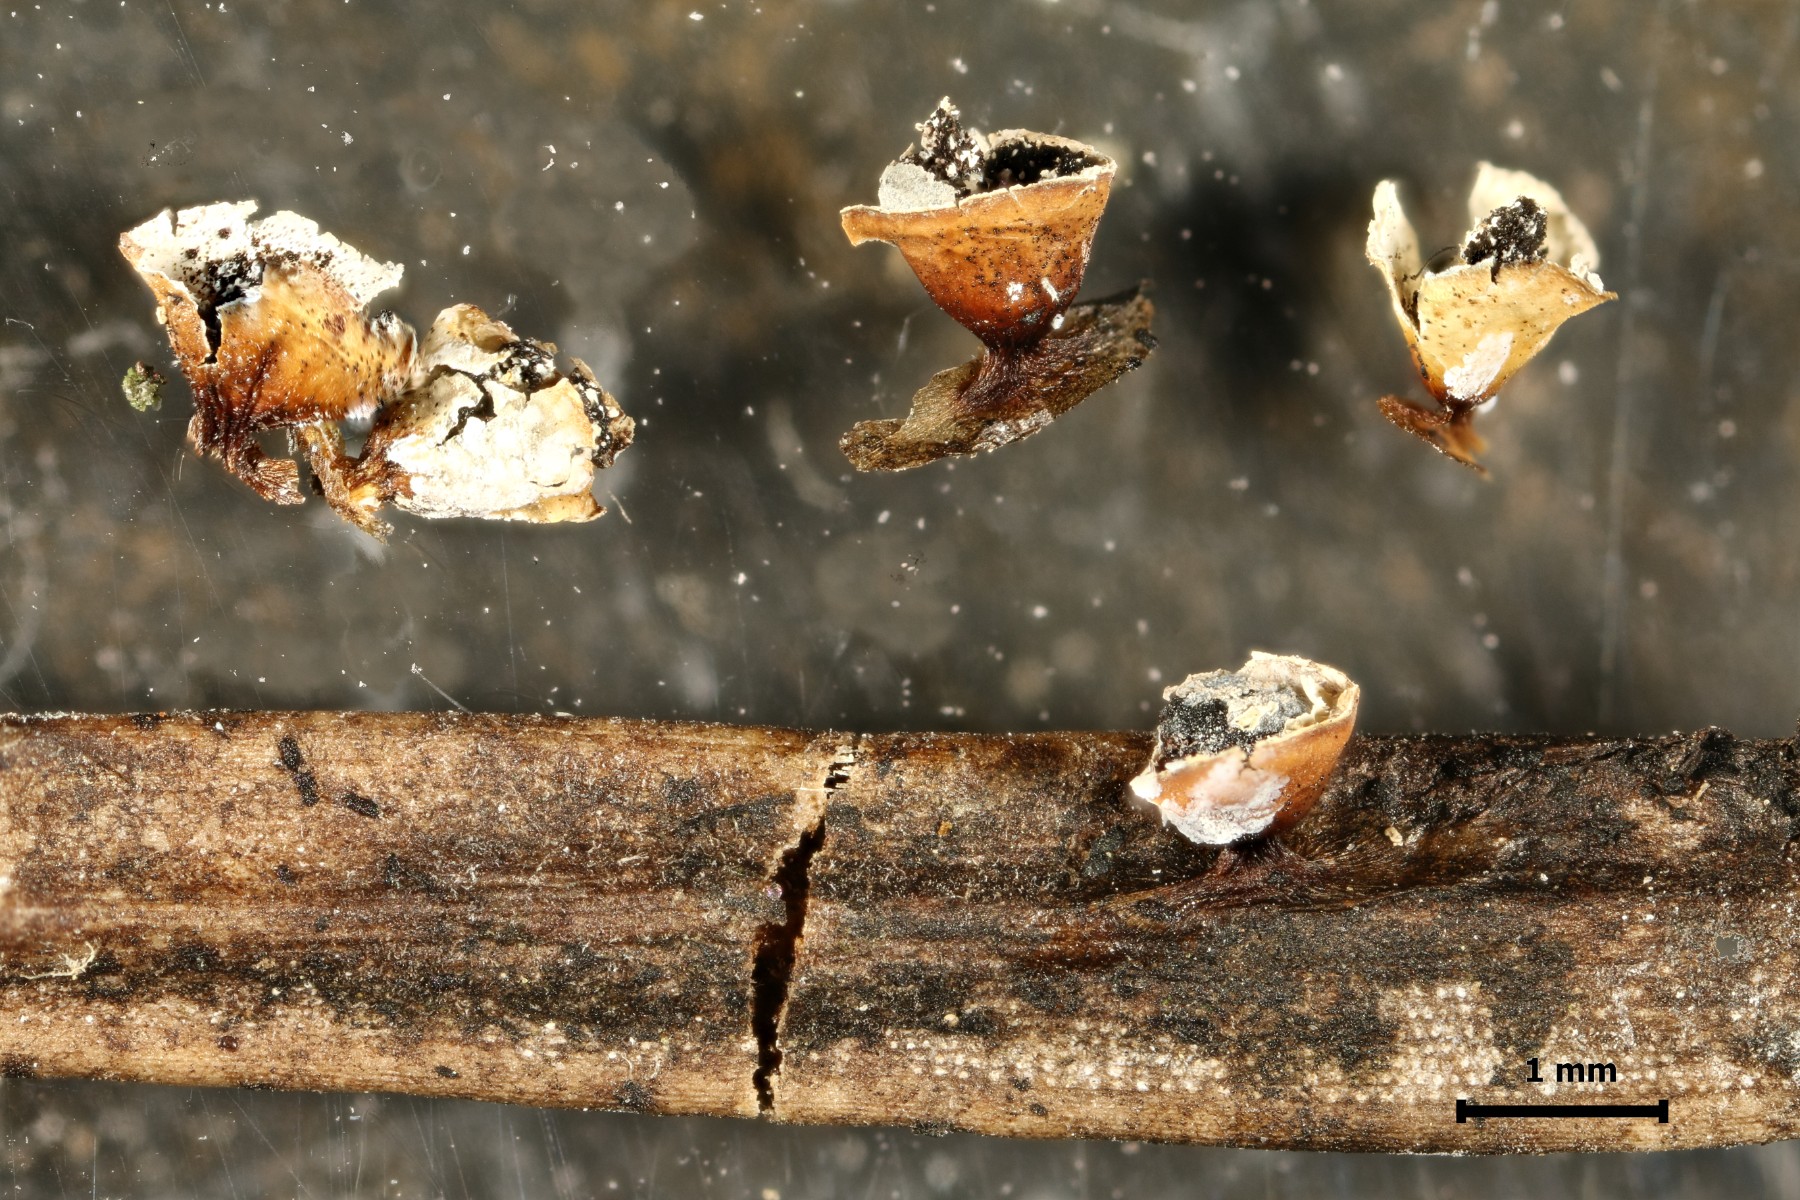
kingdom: Protozoa
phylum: Mycetozoa
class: Myxomycetes
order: Physarales
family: Physaraceae
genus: Craterium
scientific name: Craterium minutum
